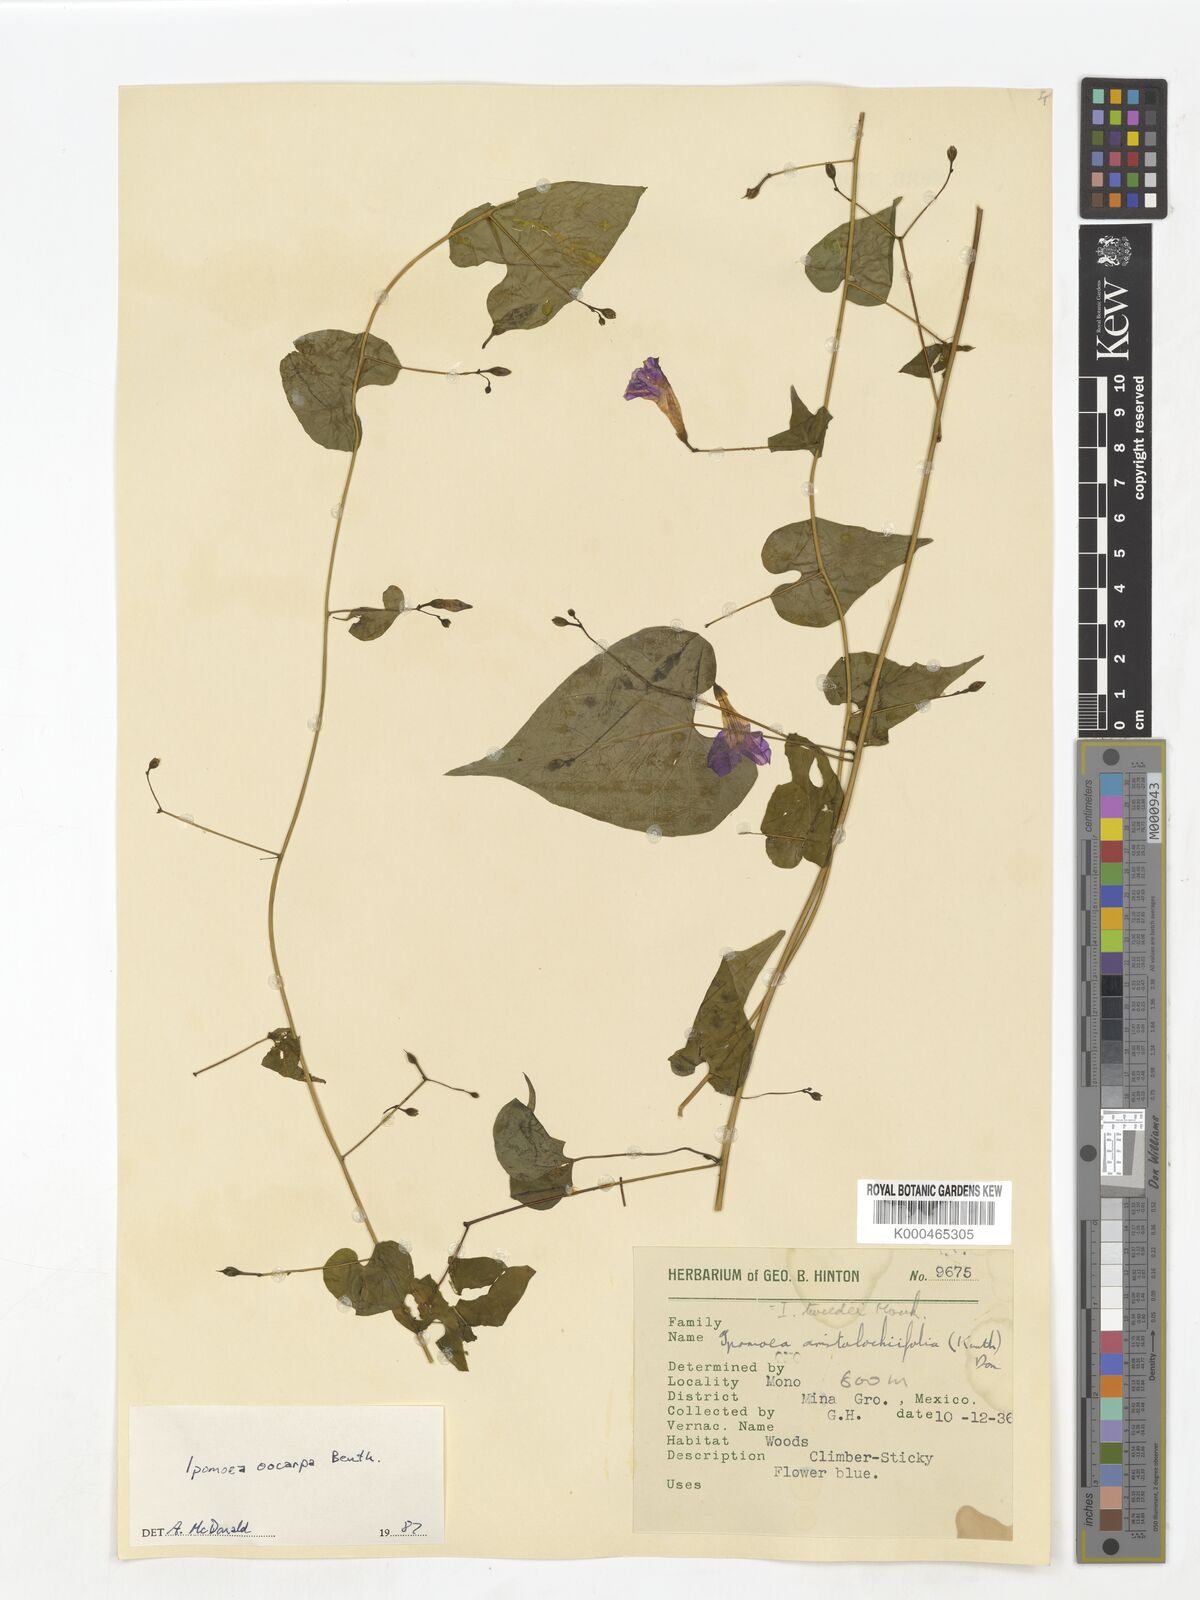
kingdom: Plantae
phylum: Tracheophyta
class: Magnoliopsida
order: Solanales
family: Convolvulaceae
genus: Ipomoea
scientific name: Ipomoea aristolochiifolia
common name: Aristolochia-leaved morning-glory
